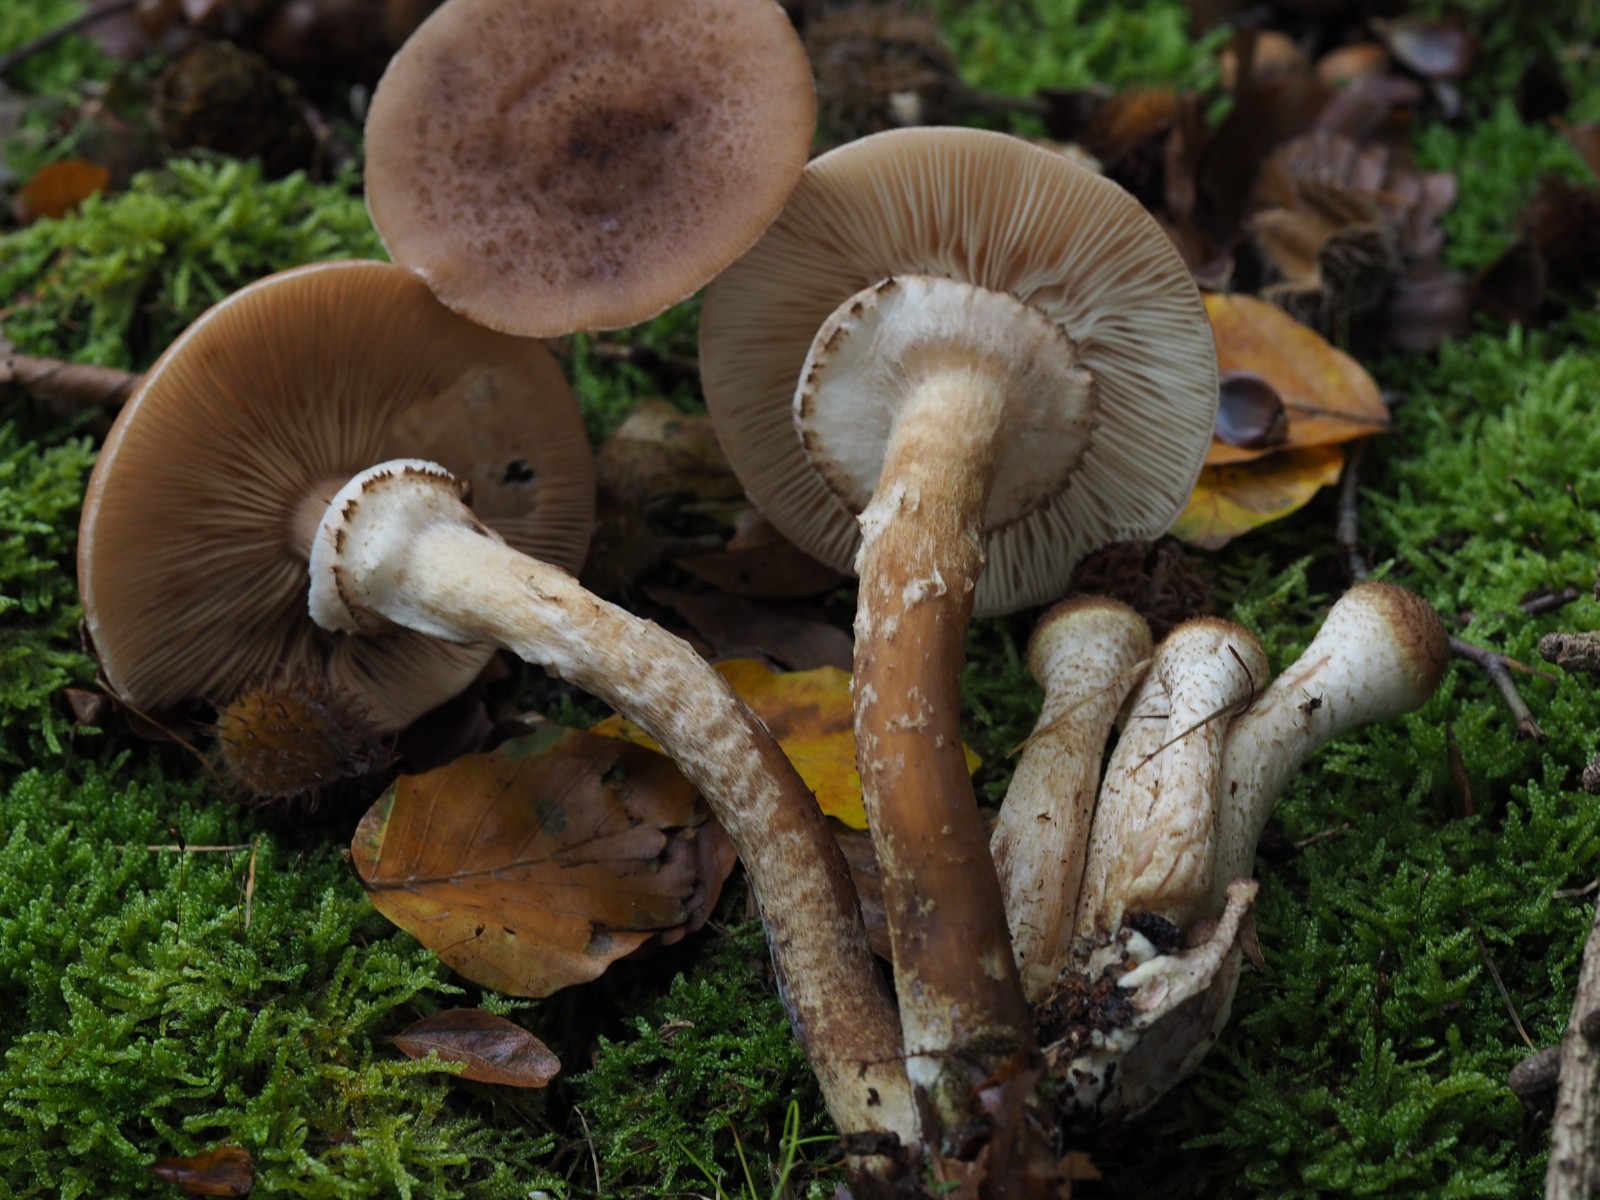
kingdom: Fungi
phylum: Basidiomycota
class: Agaricomycetes
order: Agaricales
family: Physalacriaceae
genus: Armillaria
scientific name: Armillaria ostoyae
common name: mørk honningsvamp
